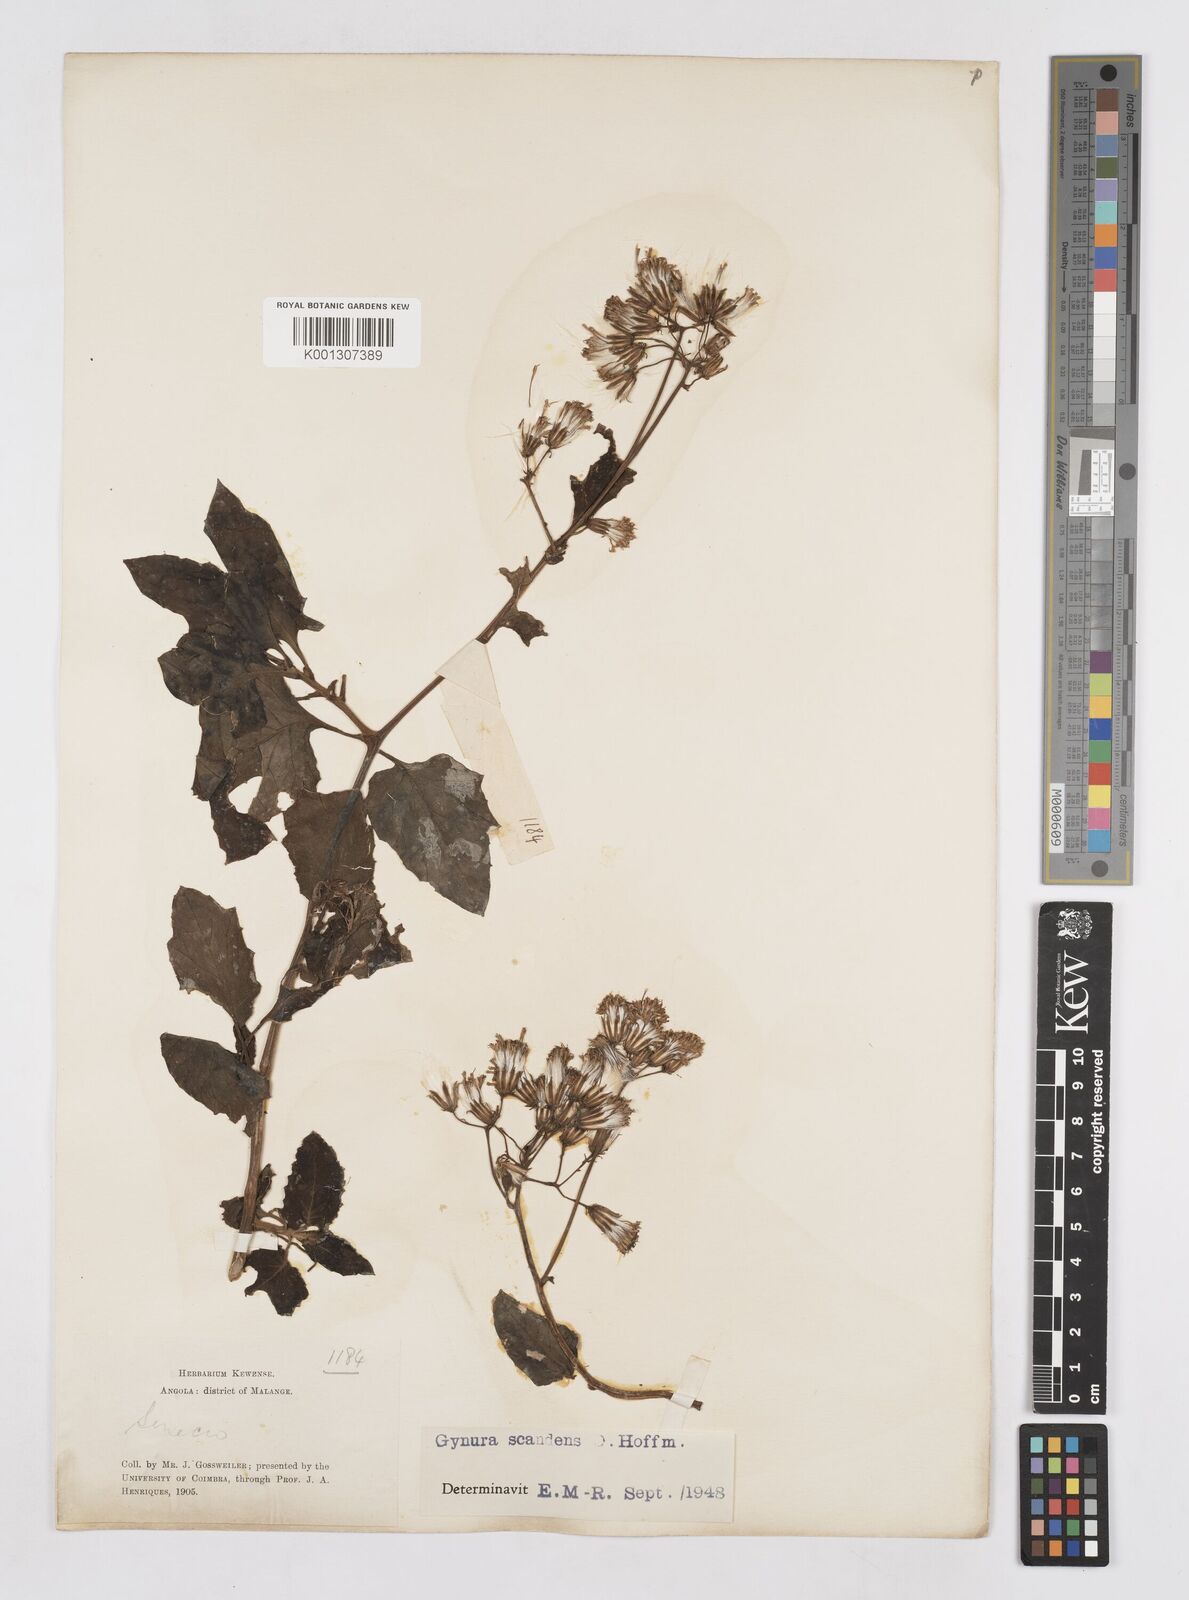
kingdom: Plantae
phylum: Tracheophyta
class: Magnoliopsida
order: Asterales
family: Asteraceae
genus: Gynura
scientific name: Gynura scandens
